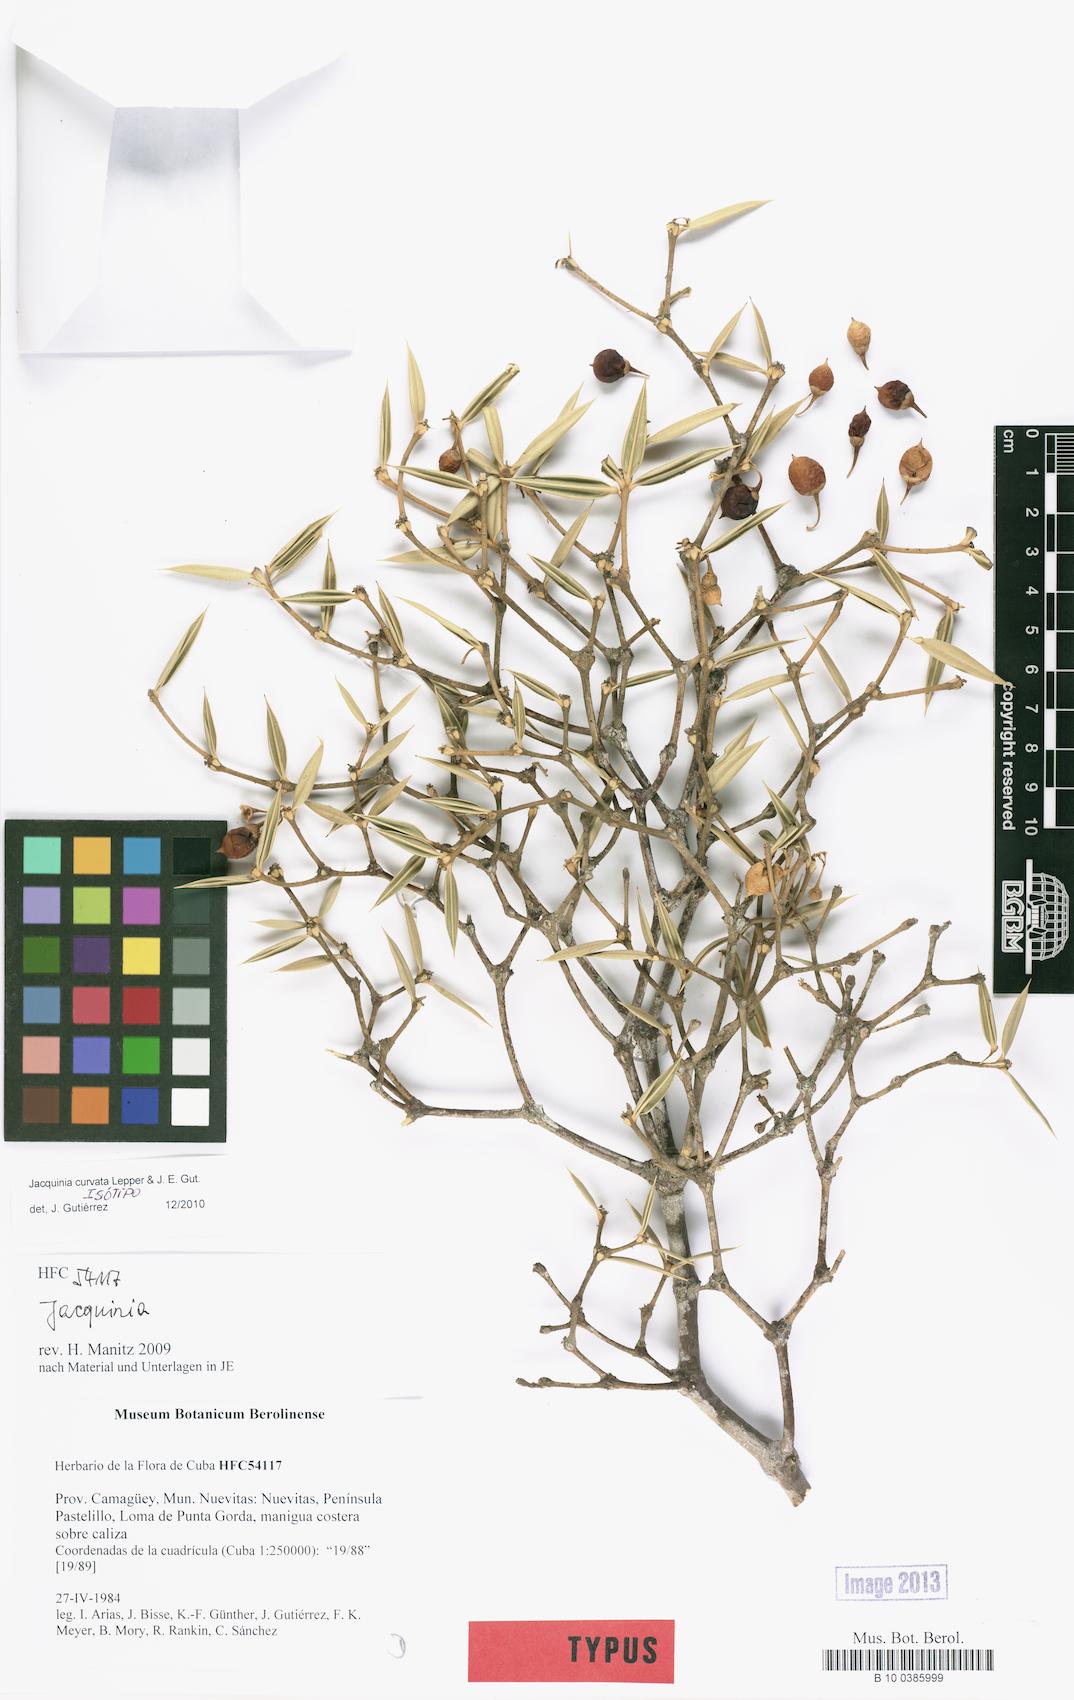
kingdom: Plantae
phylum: Tracheophyta
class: Magnoliopsida
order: Ericales
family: Primulaceae
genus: Jacquinia
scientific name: Jacquinia curvata
